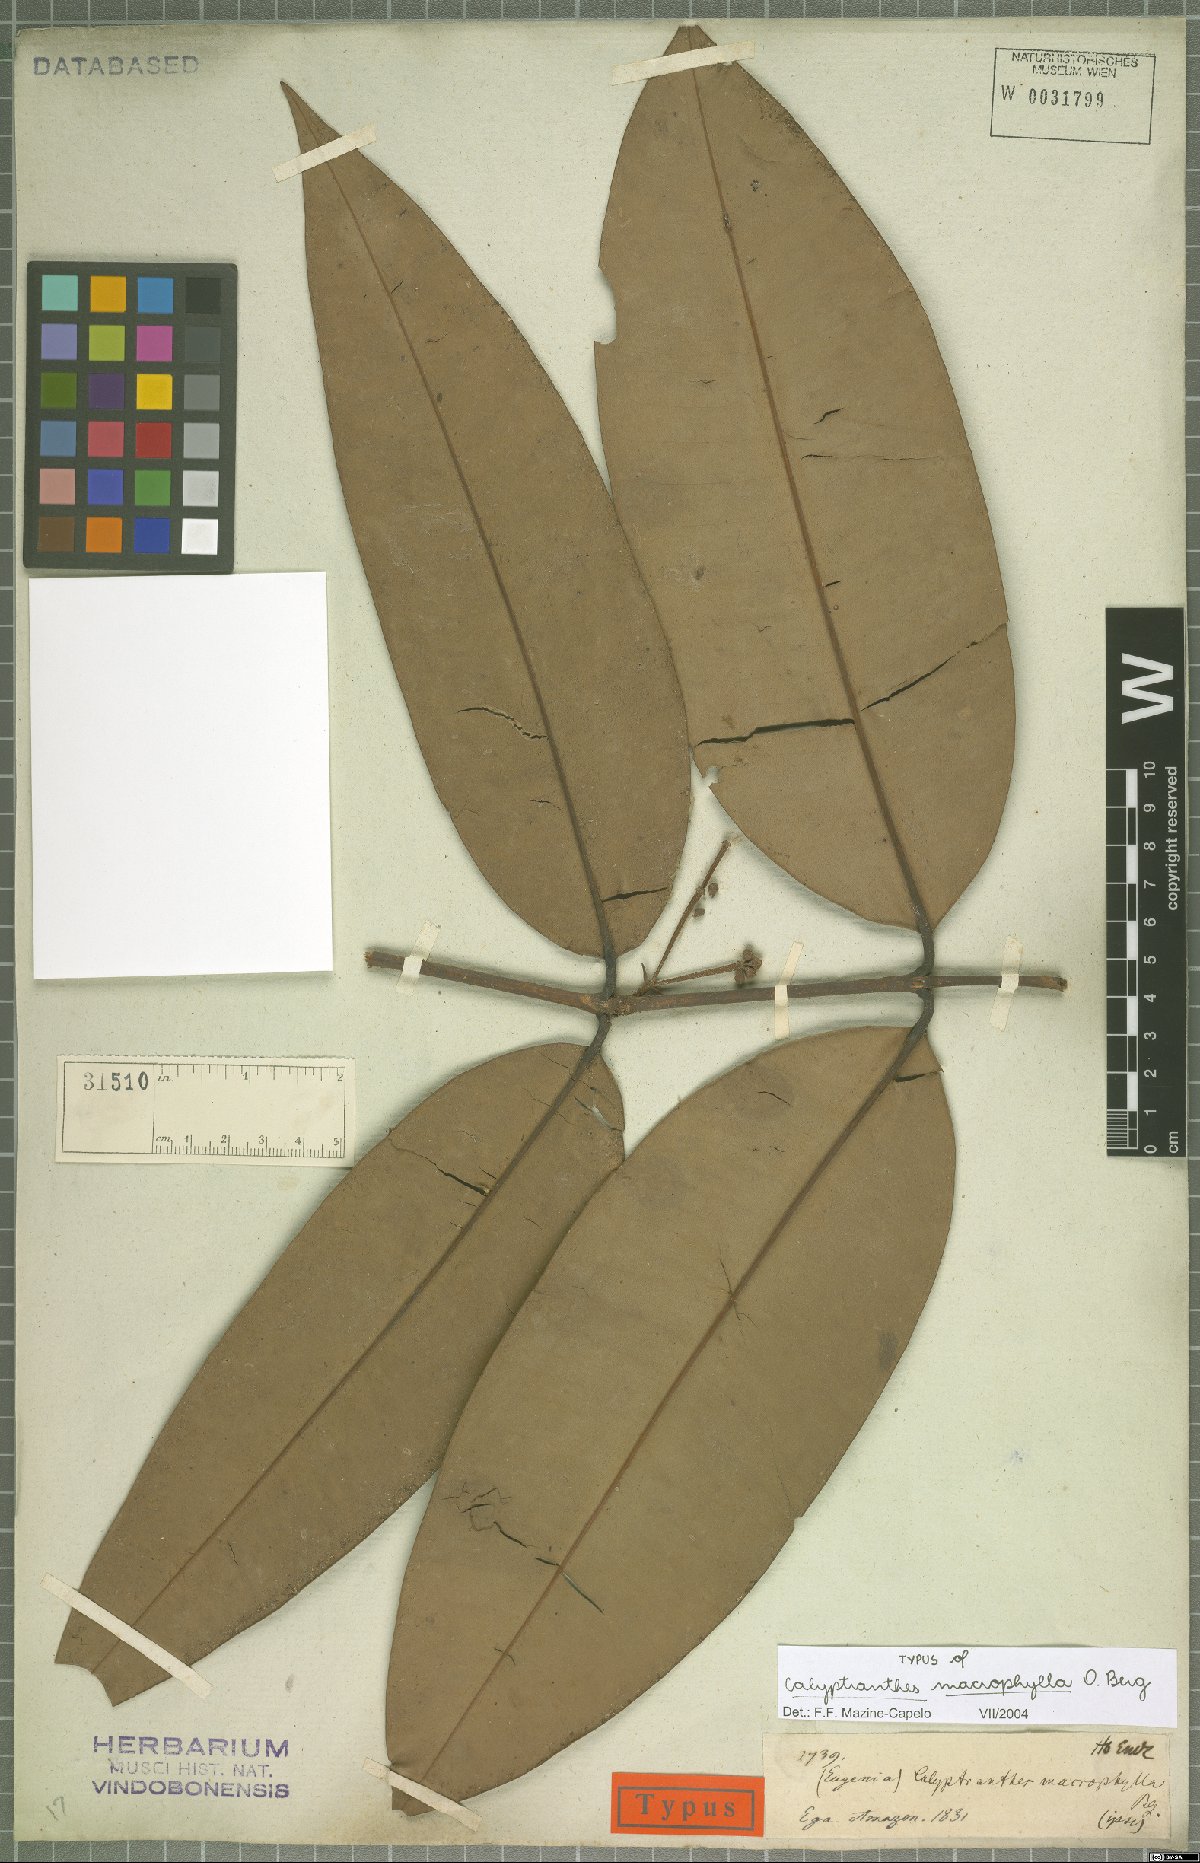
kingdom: Plantae
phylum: Tracheophyta
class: Magnoliopsida
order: Myrtales
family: Myrtaceae
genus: Myrcia
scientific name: Myrcia neomacrophylla
